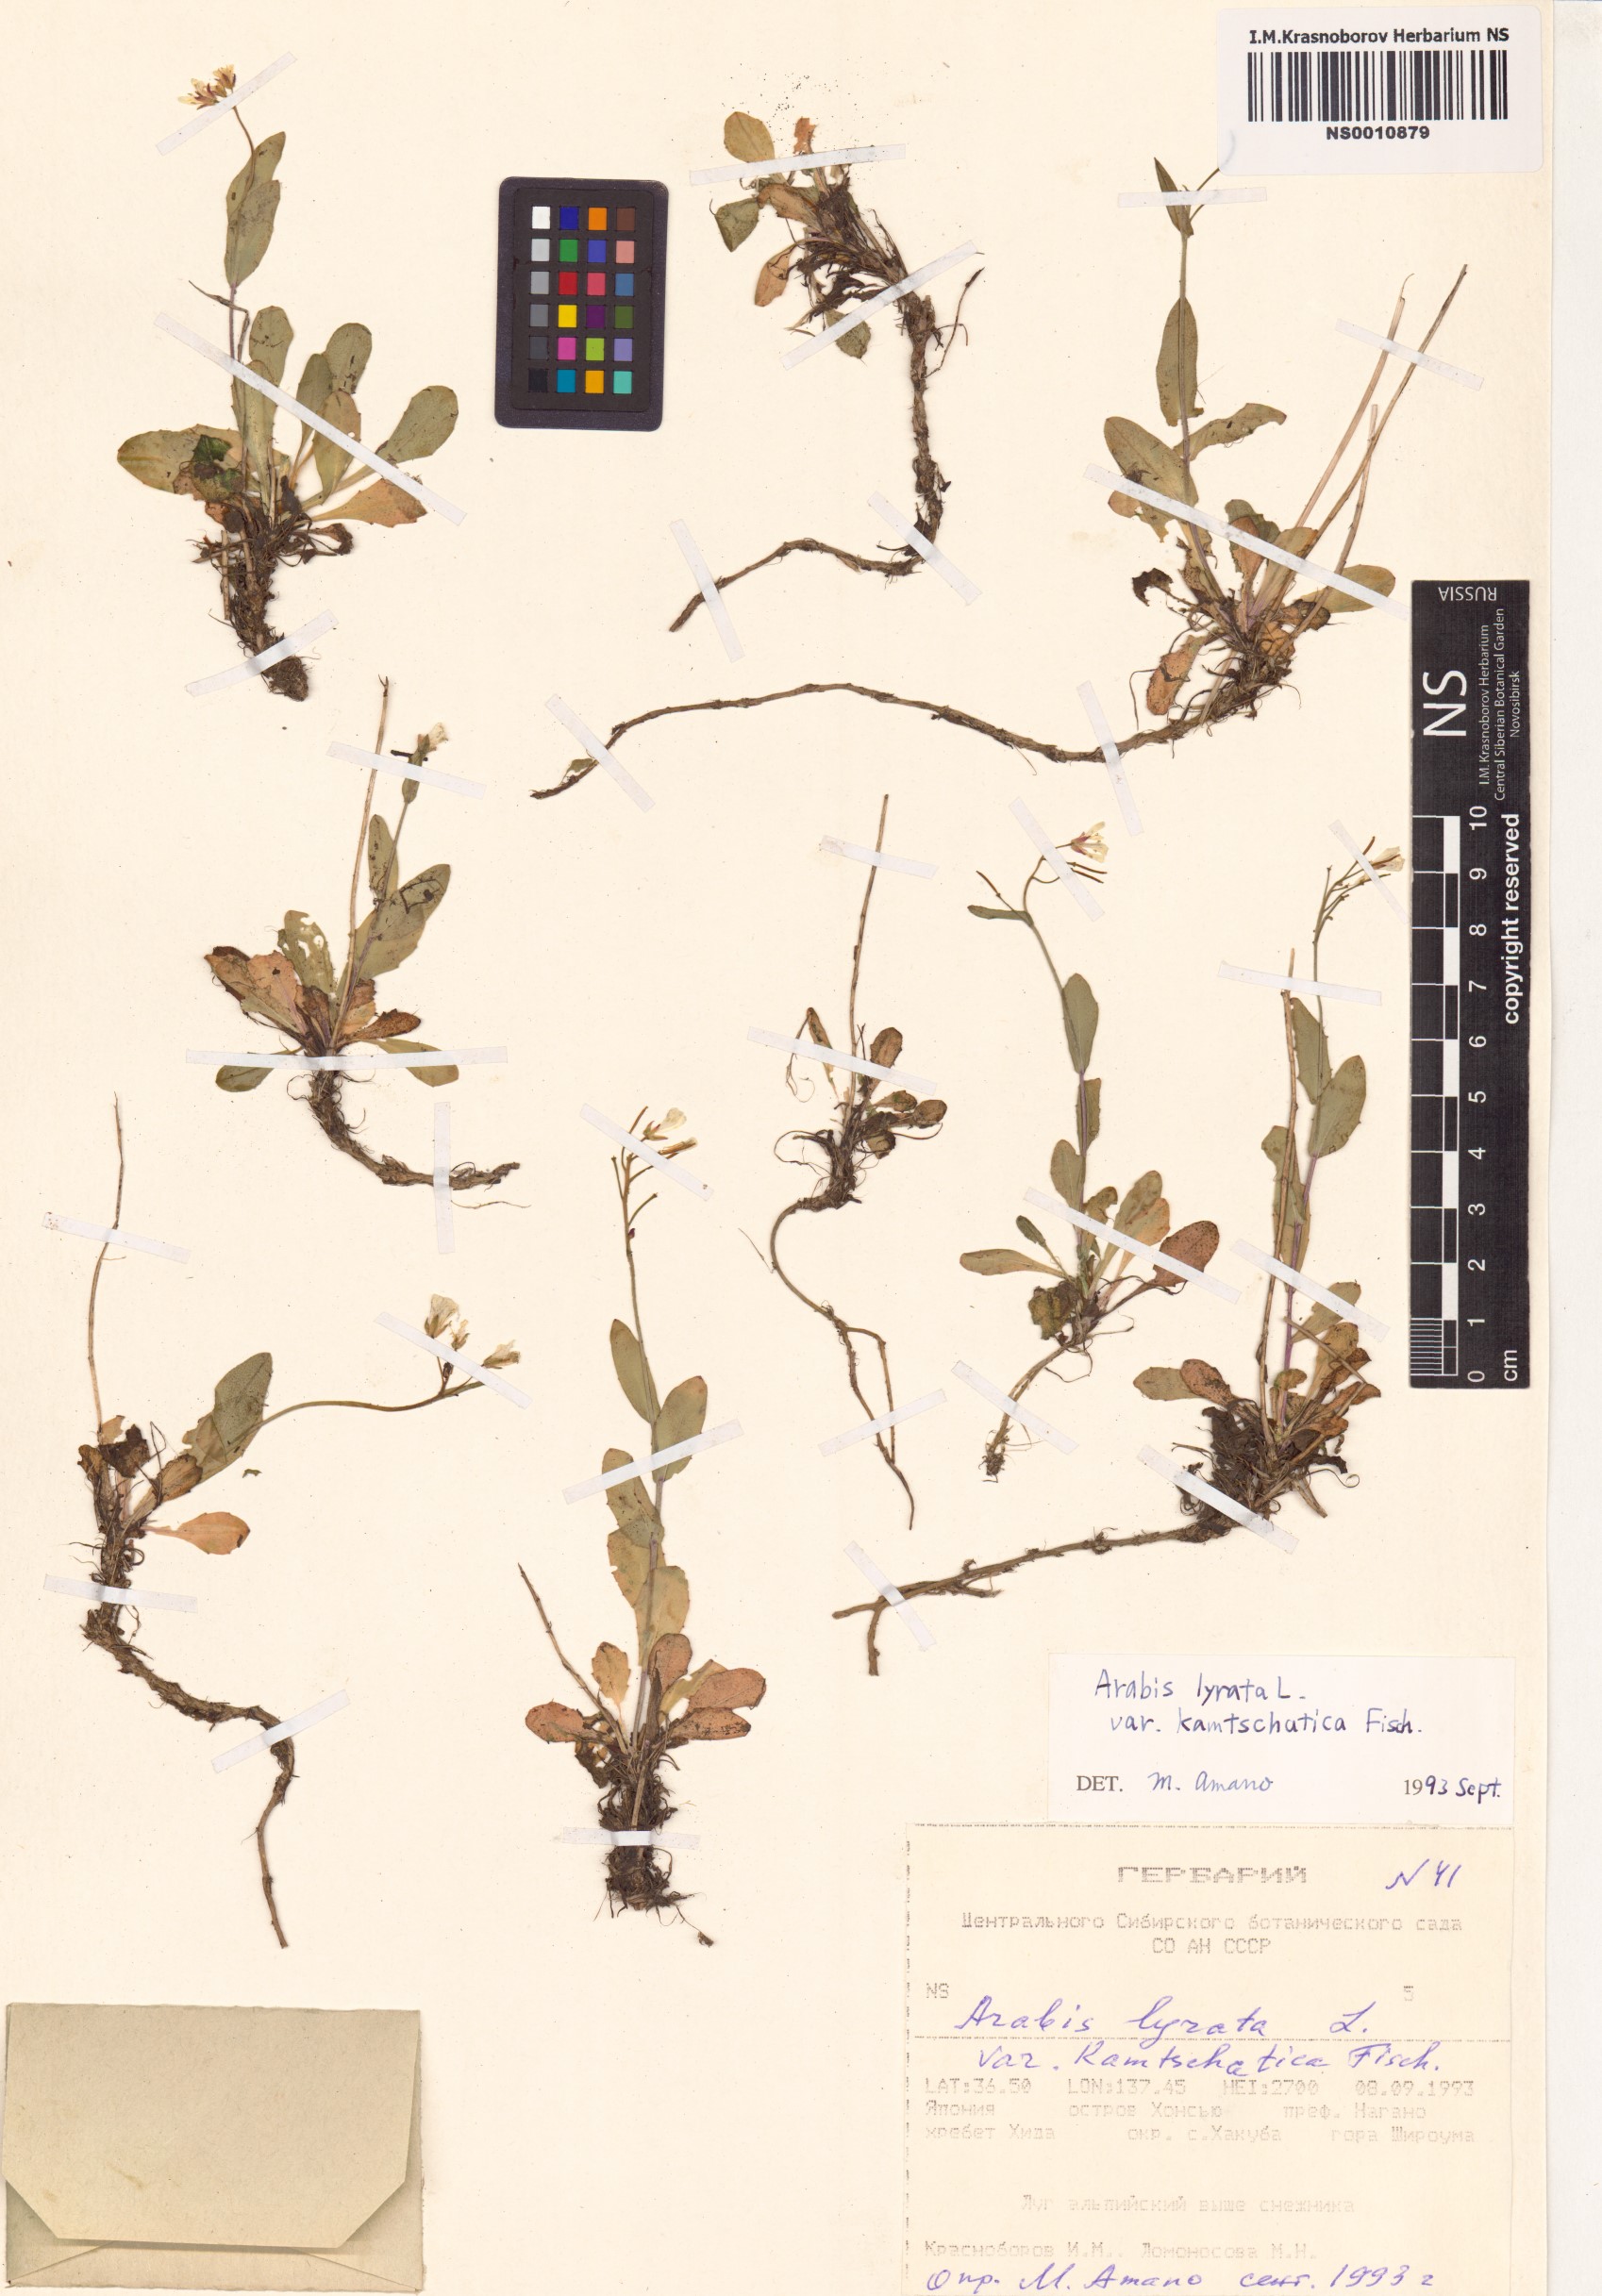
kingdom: Plantae
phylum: Tracheophyta
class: Magnoliopsida
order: Brassicales
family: Brassicaceae
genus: Arabidopsis
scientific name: Arabidopsis lyrata
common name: Lyrate rockcress
